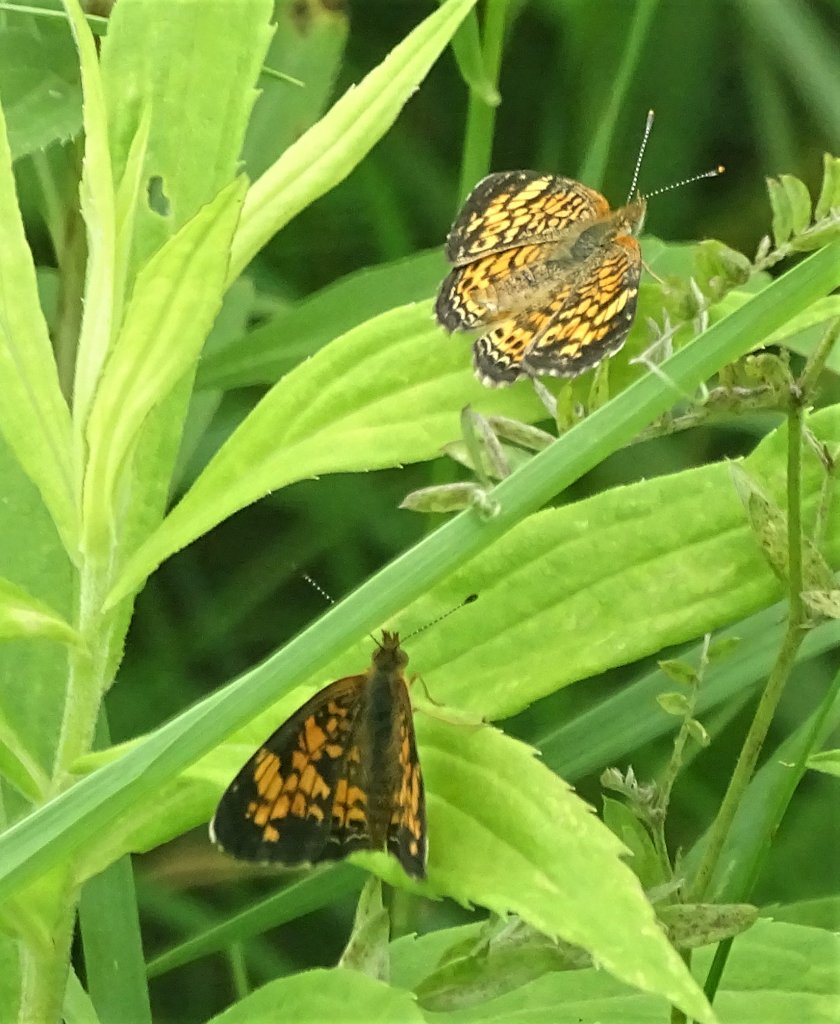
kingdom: Animalia
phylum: Arthropoda
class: Insecta
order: Lepidoptera
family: Nymphalidae
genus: Phyciodes
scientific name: Phyciodes tharos
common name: Pearl Crescent
